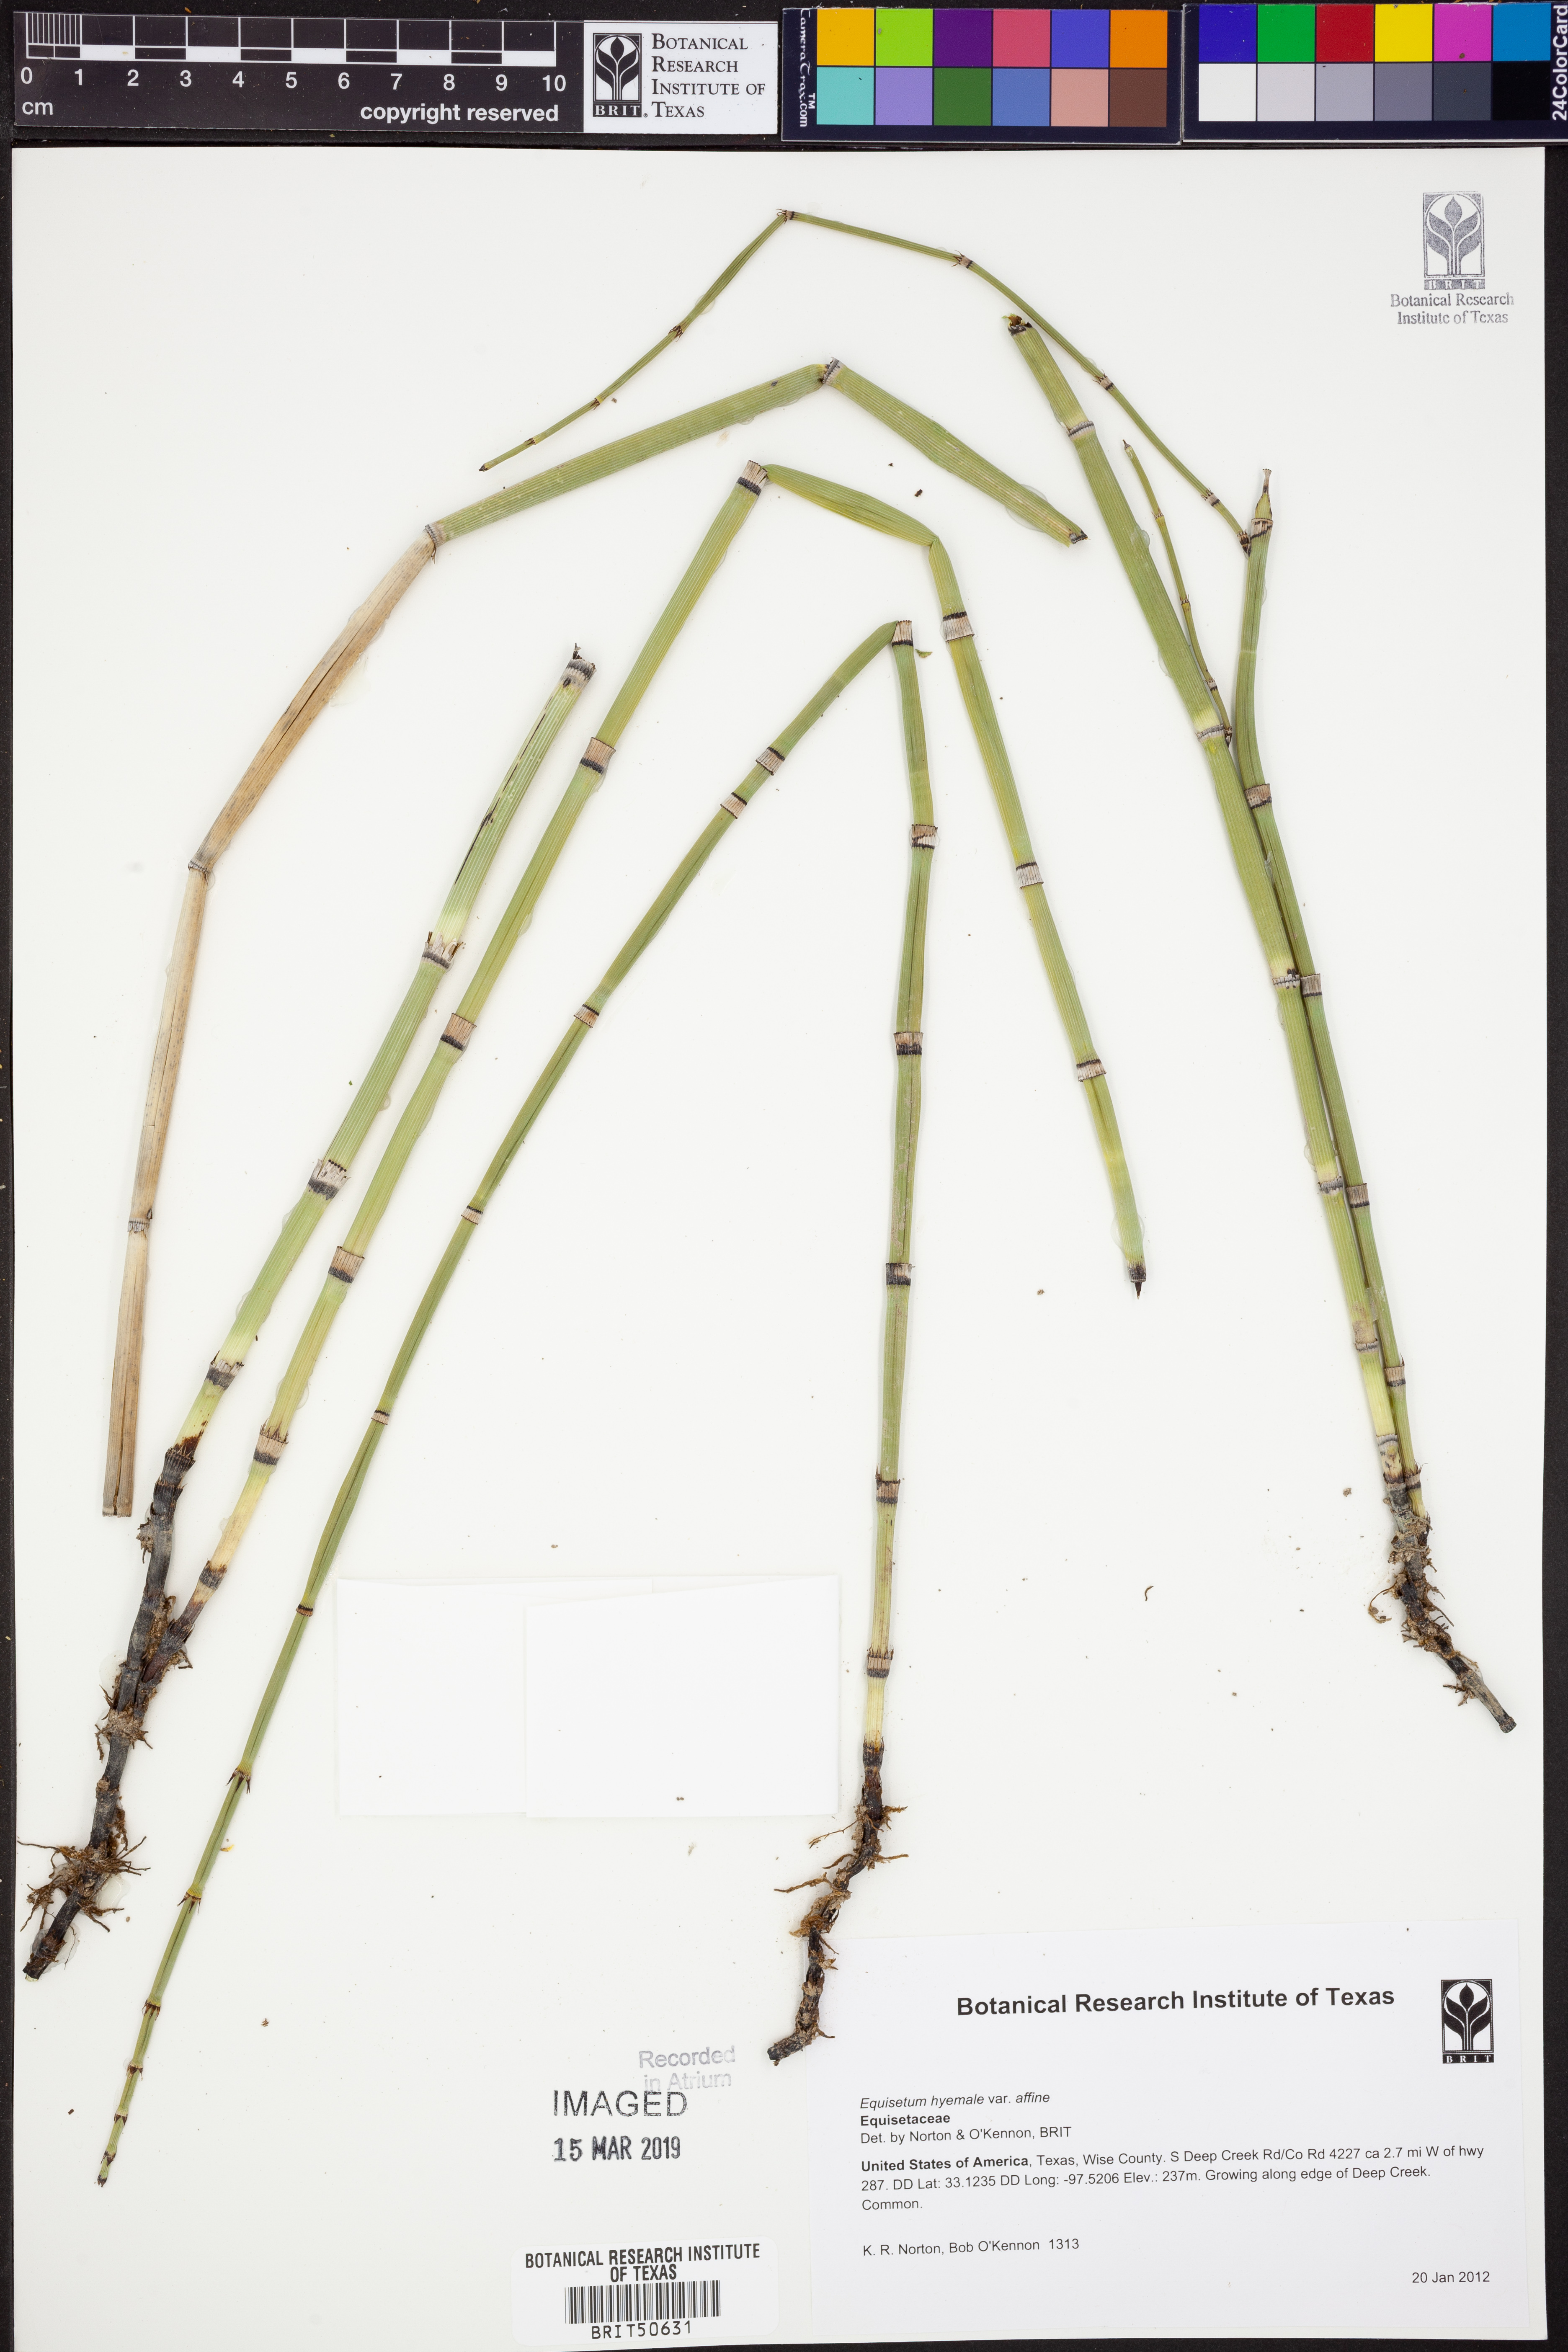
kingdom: Plantae
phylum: Tracheophyta
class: Polypodiopsida
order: Equisetales
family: Equisetaceae
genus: Equisetum
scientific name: Equisetum praealtum
